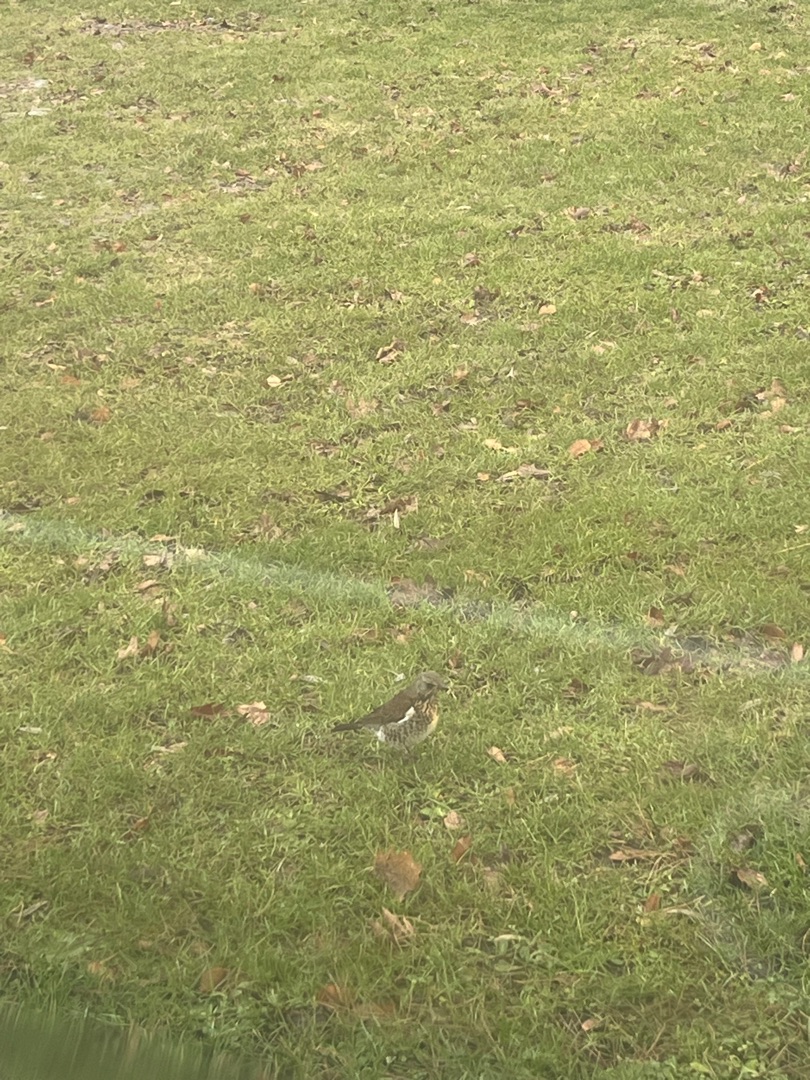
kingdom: Animalia
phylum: Chordata
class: Aves
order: Passeriformes
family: Turdidae
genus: Turdus
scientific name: Turdus pilaris
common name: Sjagger
